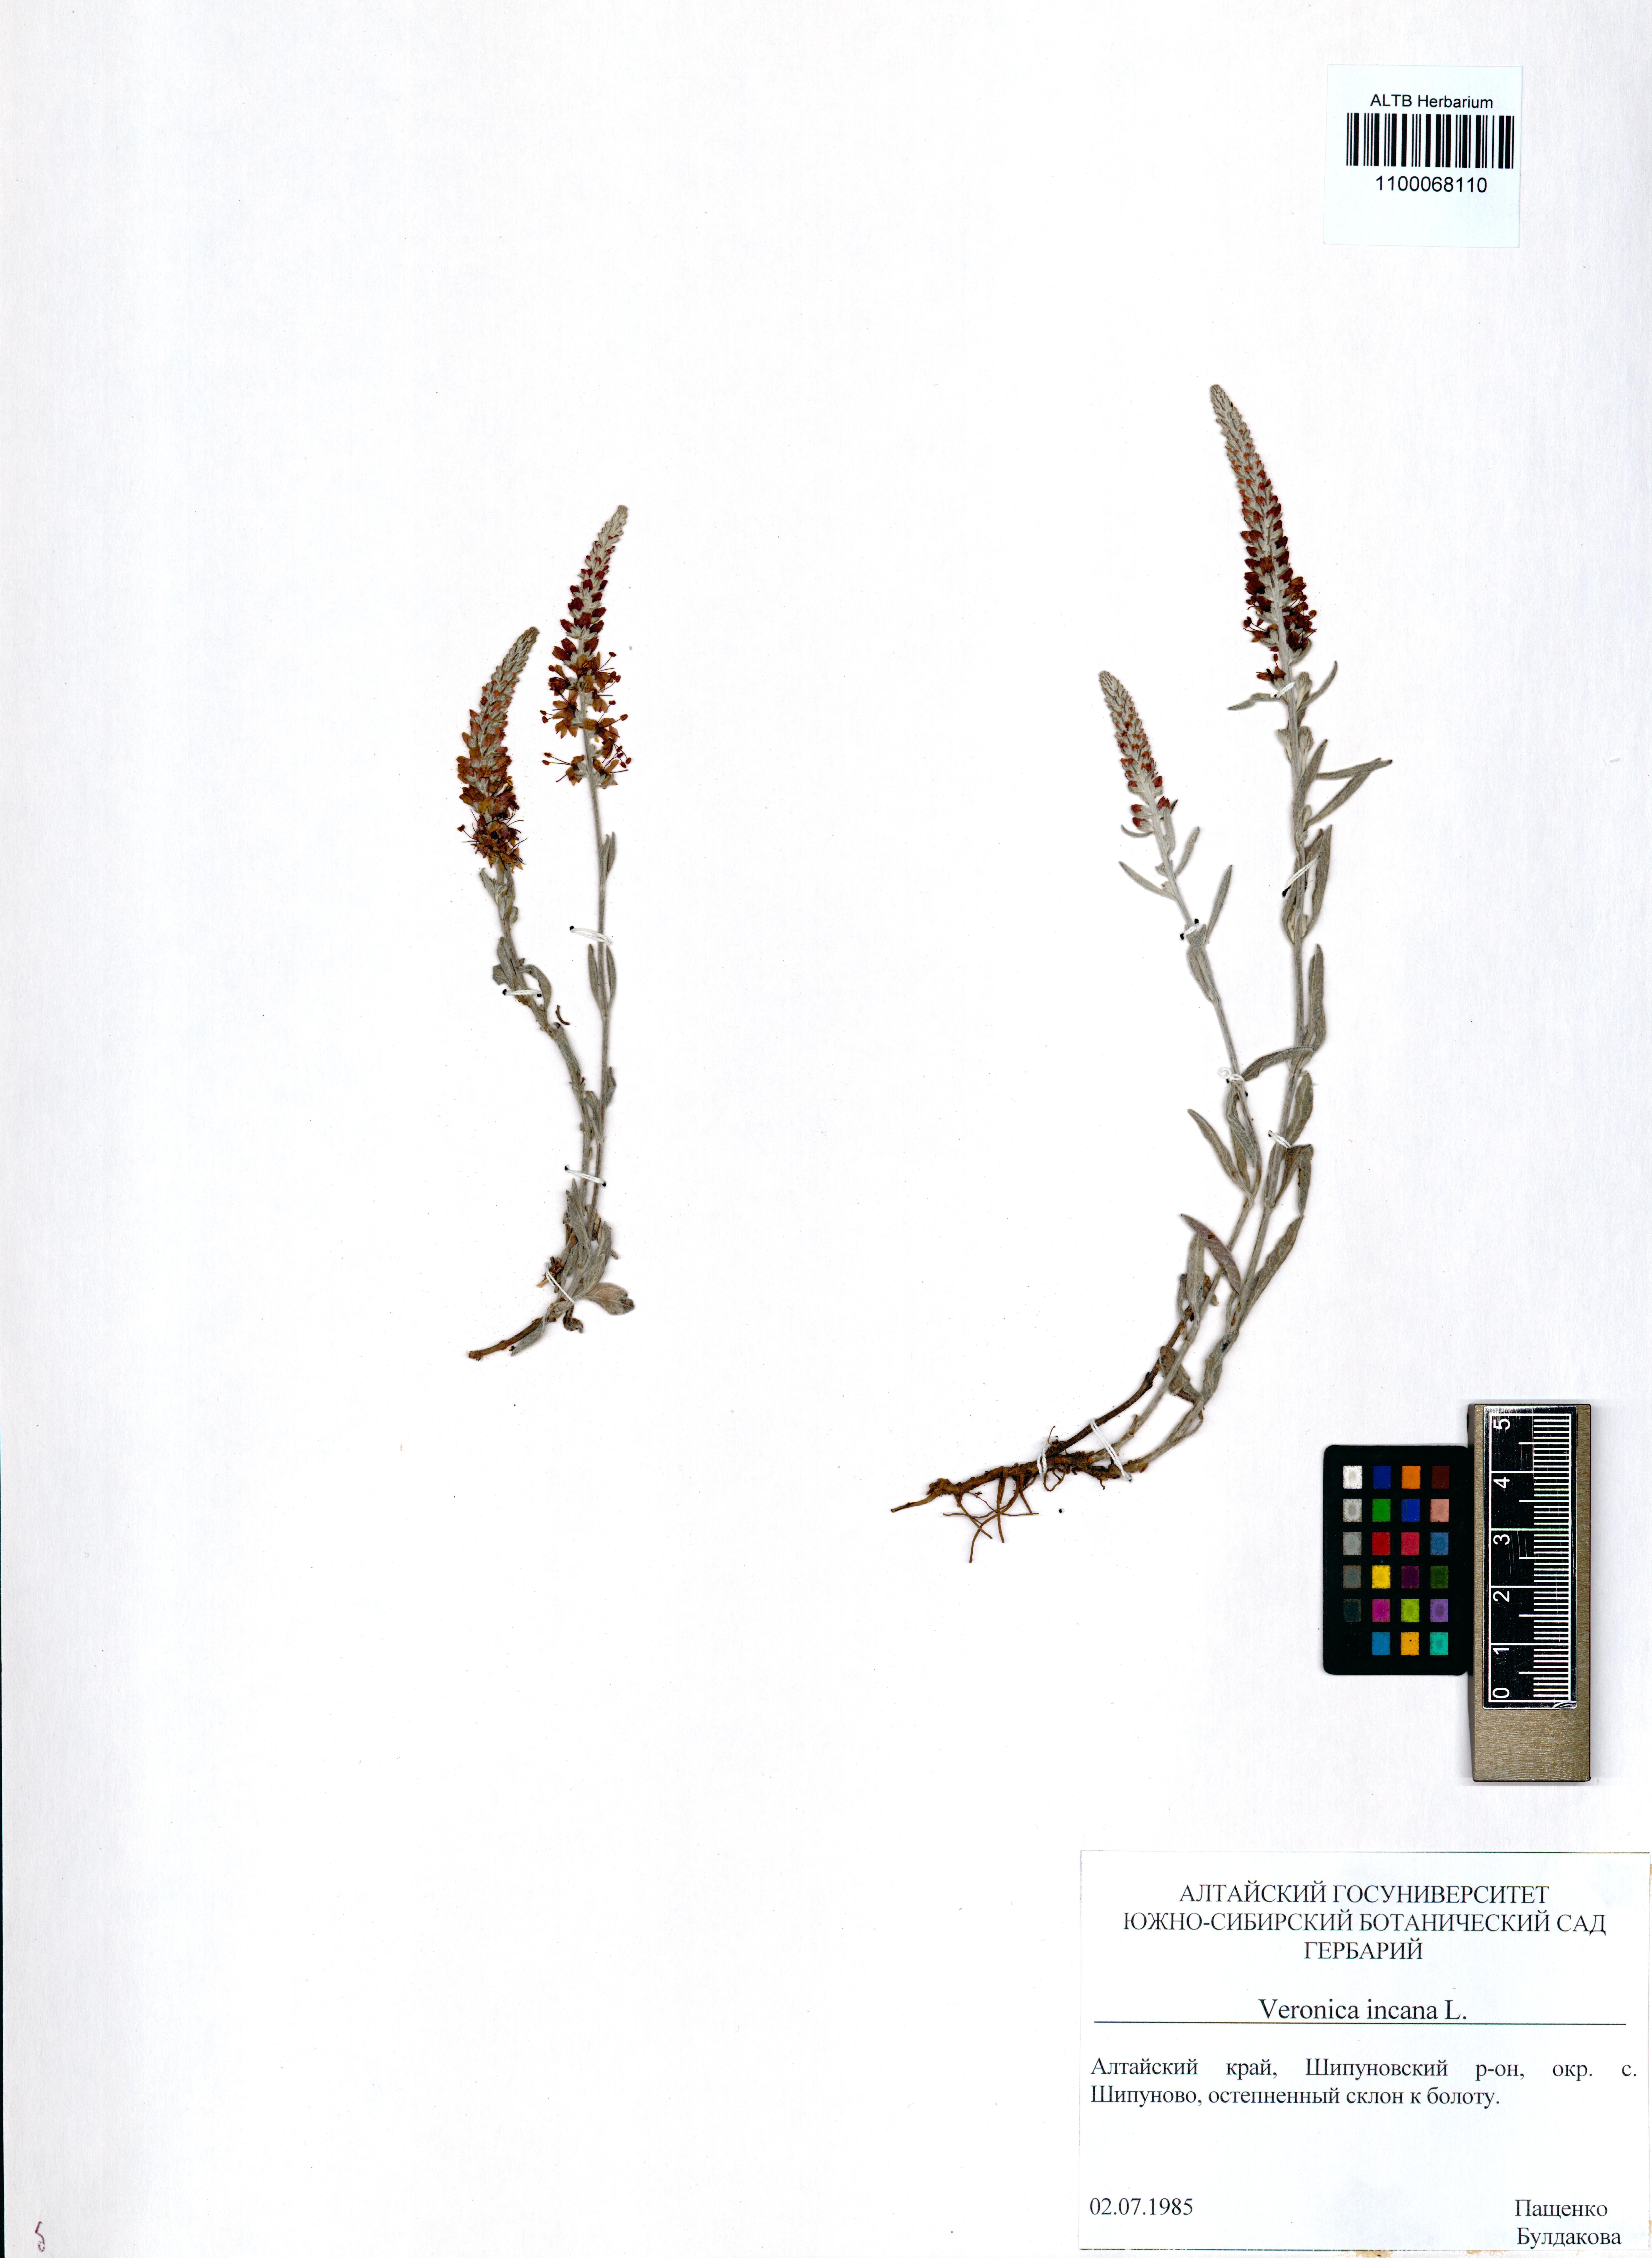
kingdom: Plantae
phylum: Tracheophyta
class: Magnoliopsida
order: Lamiales
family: Plantaginaceae
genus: Veronica
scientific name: Veronica incana
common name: Silver speedwell
